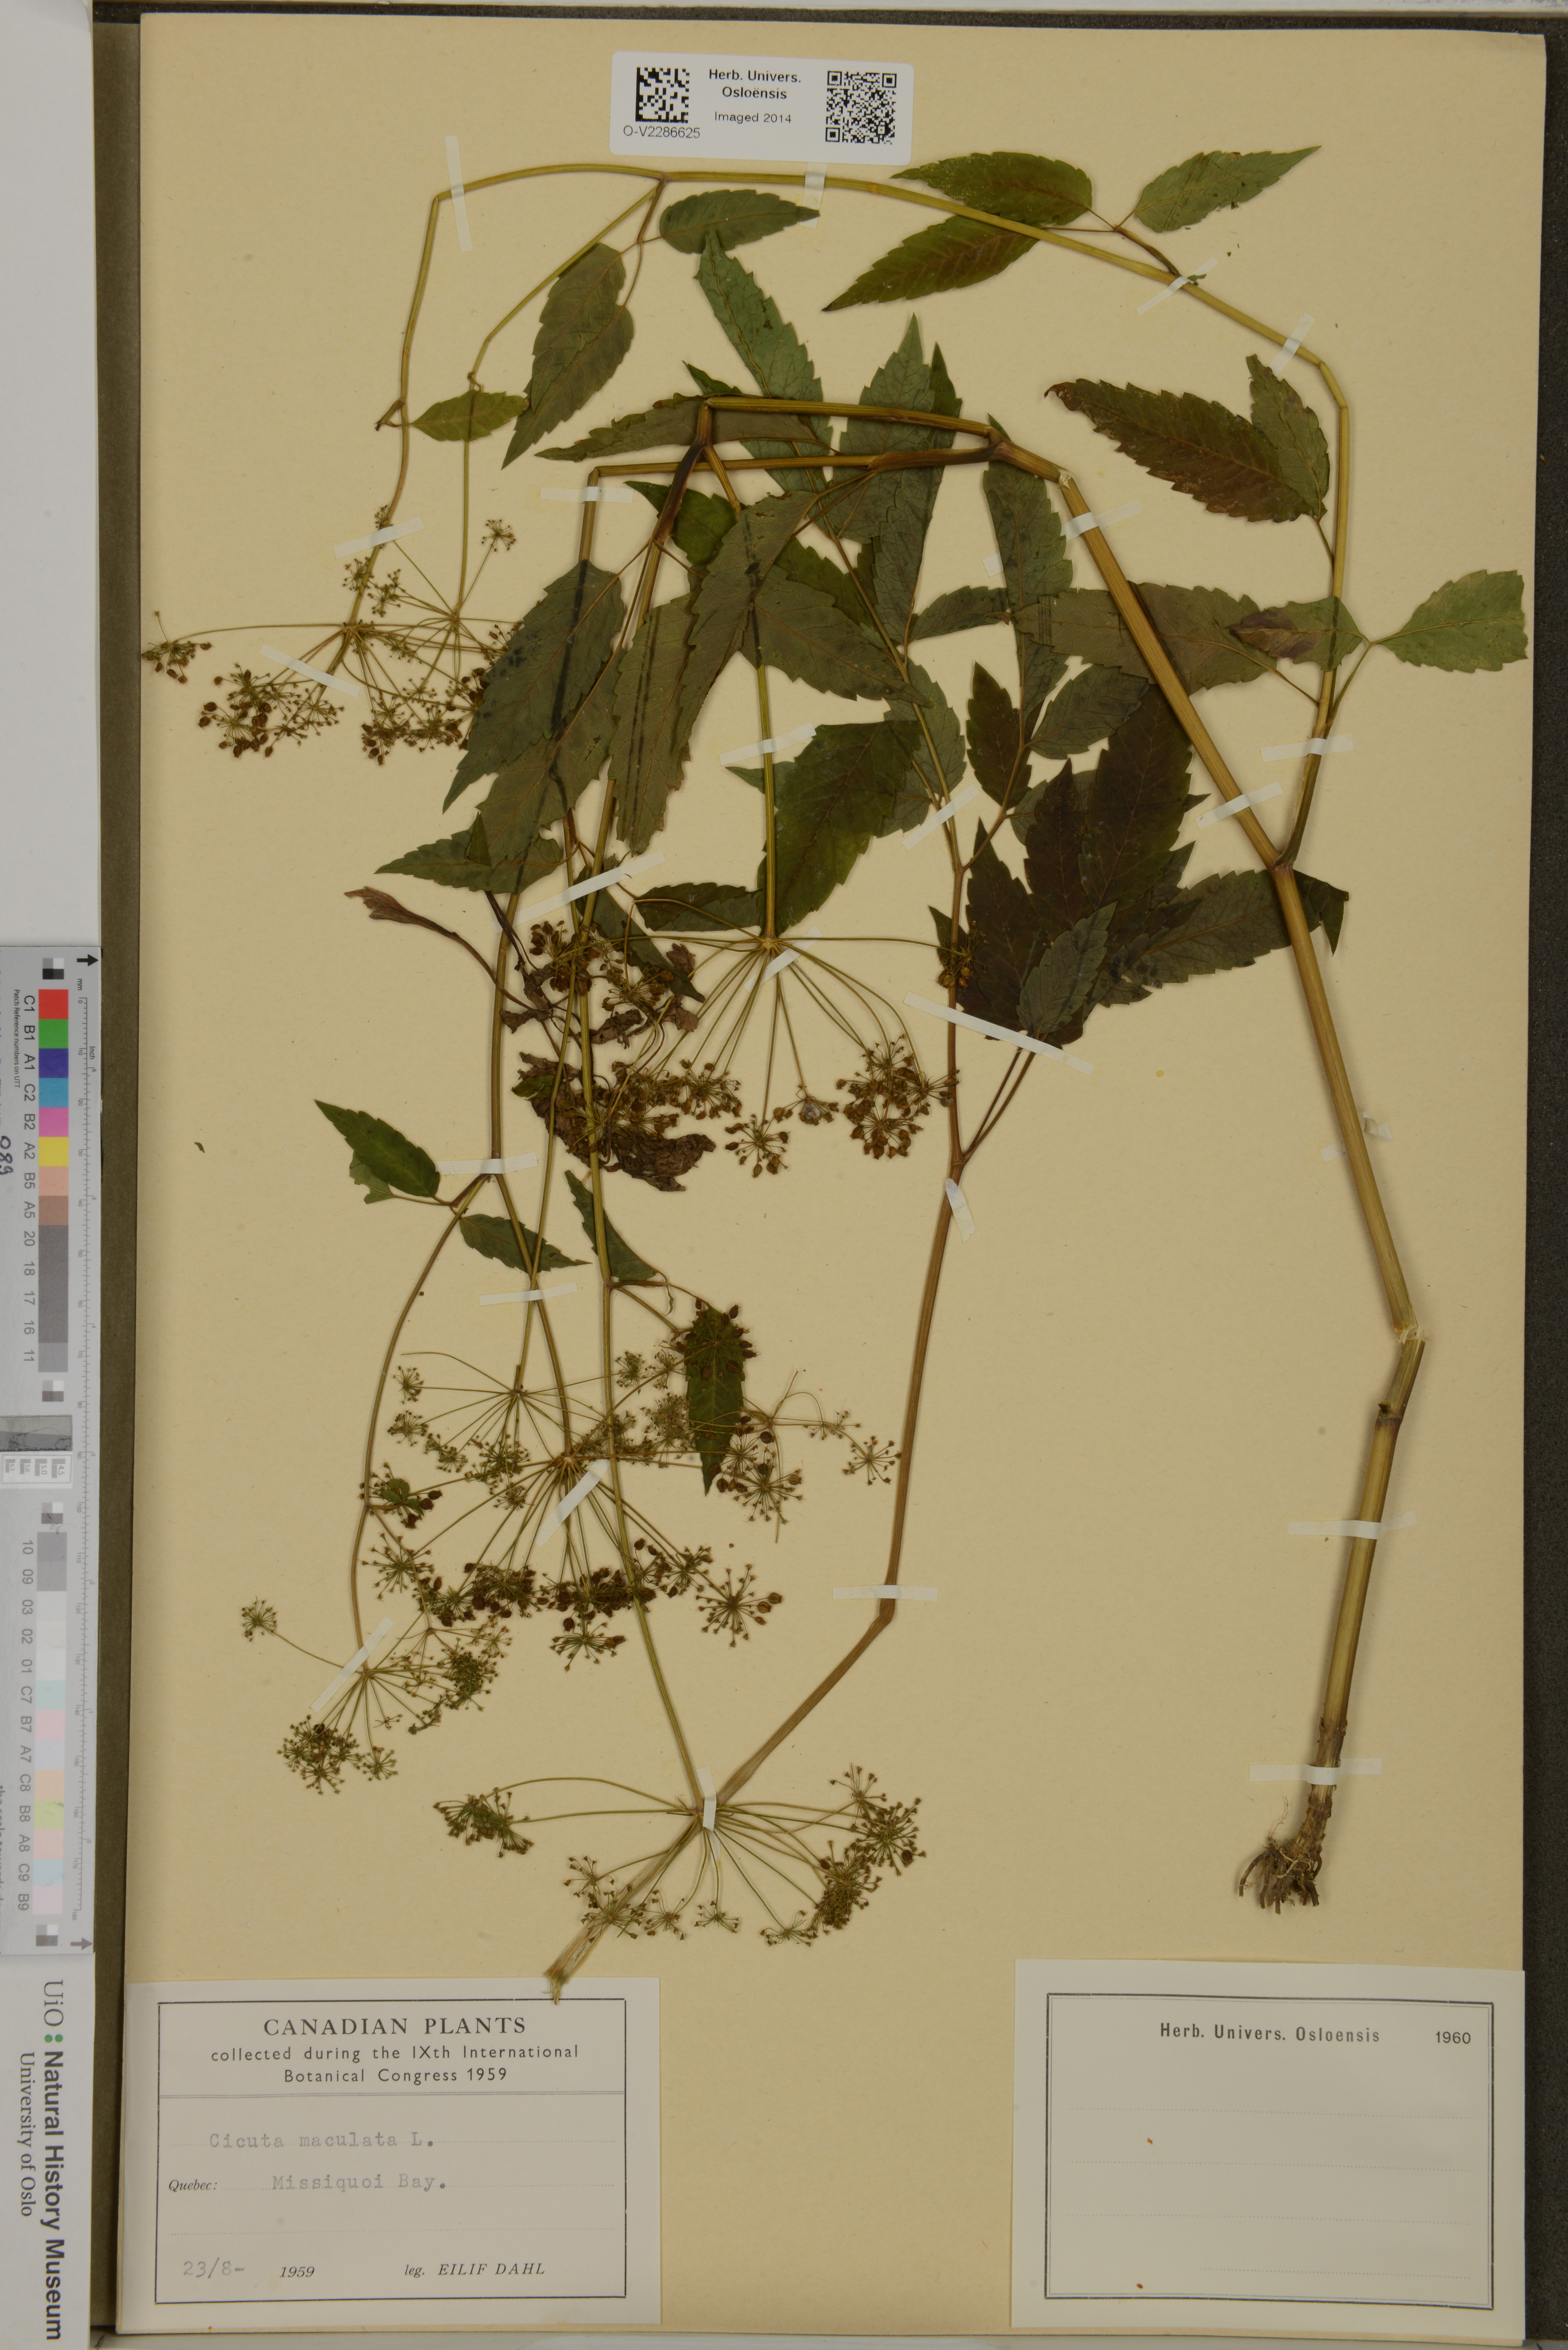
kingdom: Plantae
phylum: Tracheophyta
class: Magnoliopsida
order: Apiales
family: Apiaceae
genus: Cicuta
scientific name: Cicuta maculata
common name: Spotted cowbane
